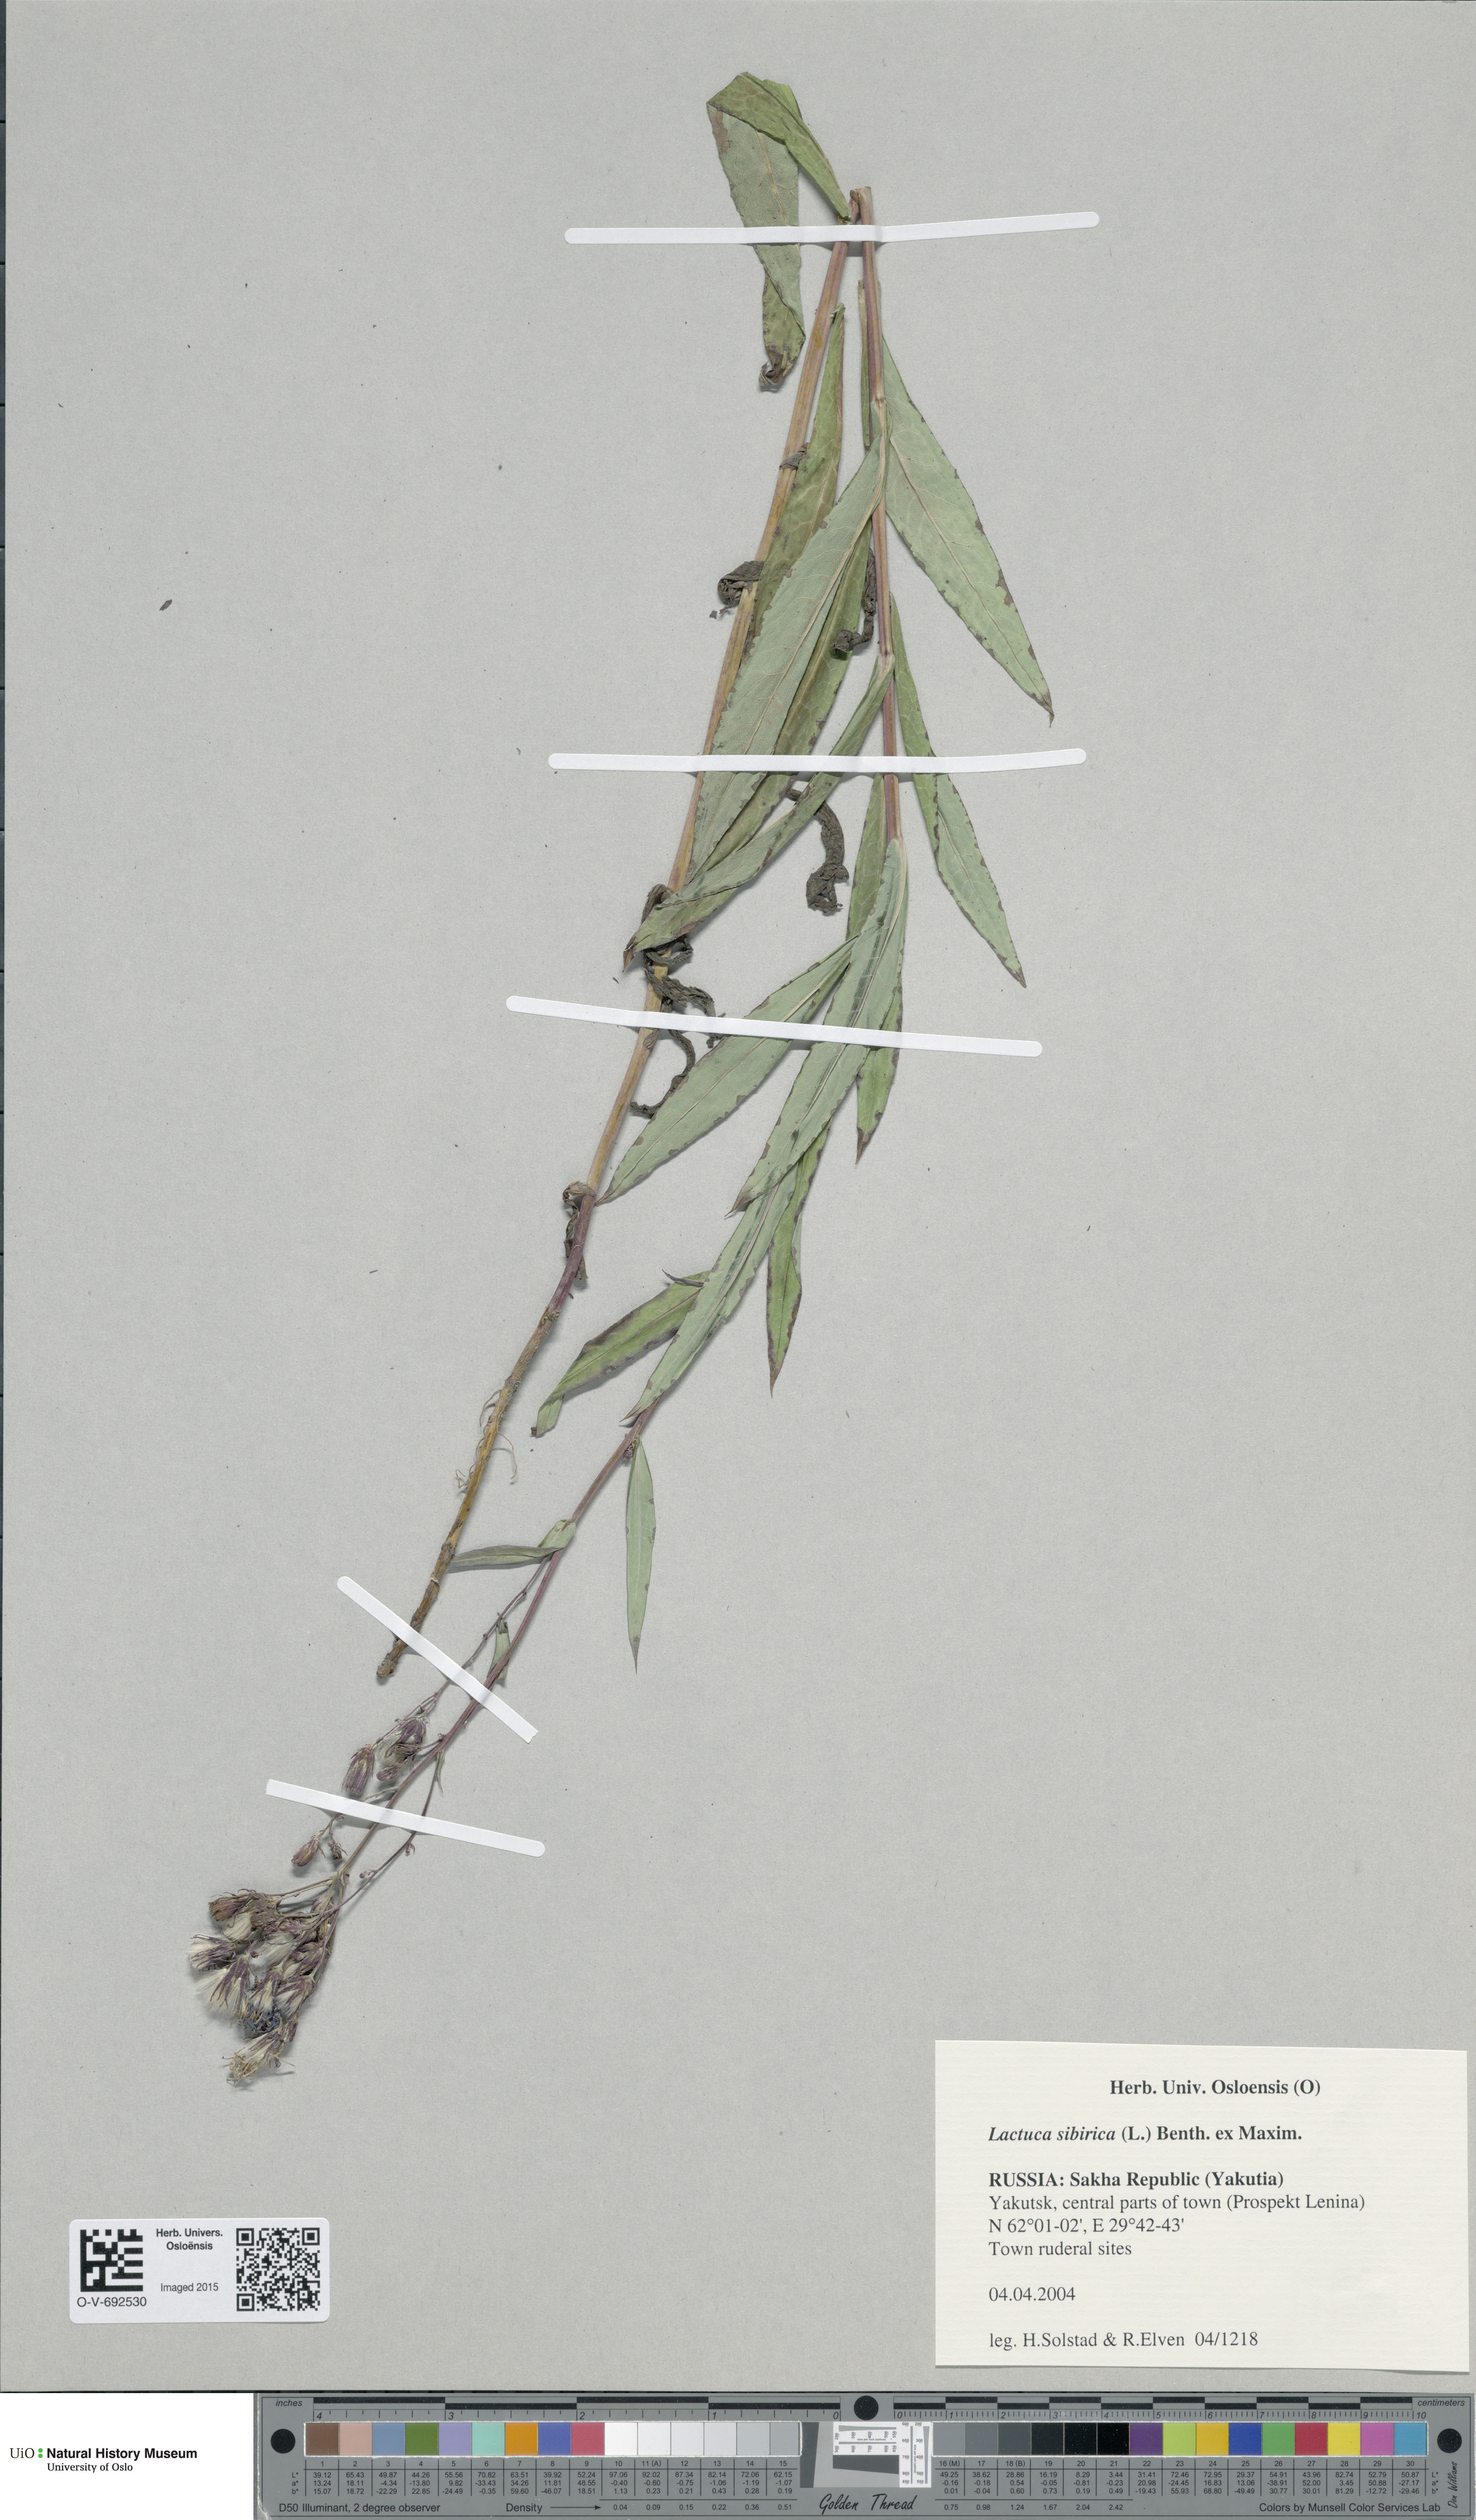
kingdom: Plantae
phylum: Tracheophyta
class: Magnoliopsida
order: Asterales
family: Asteraceae
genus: Lactuca
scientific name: Lactuca sibirica
